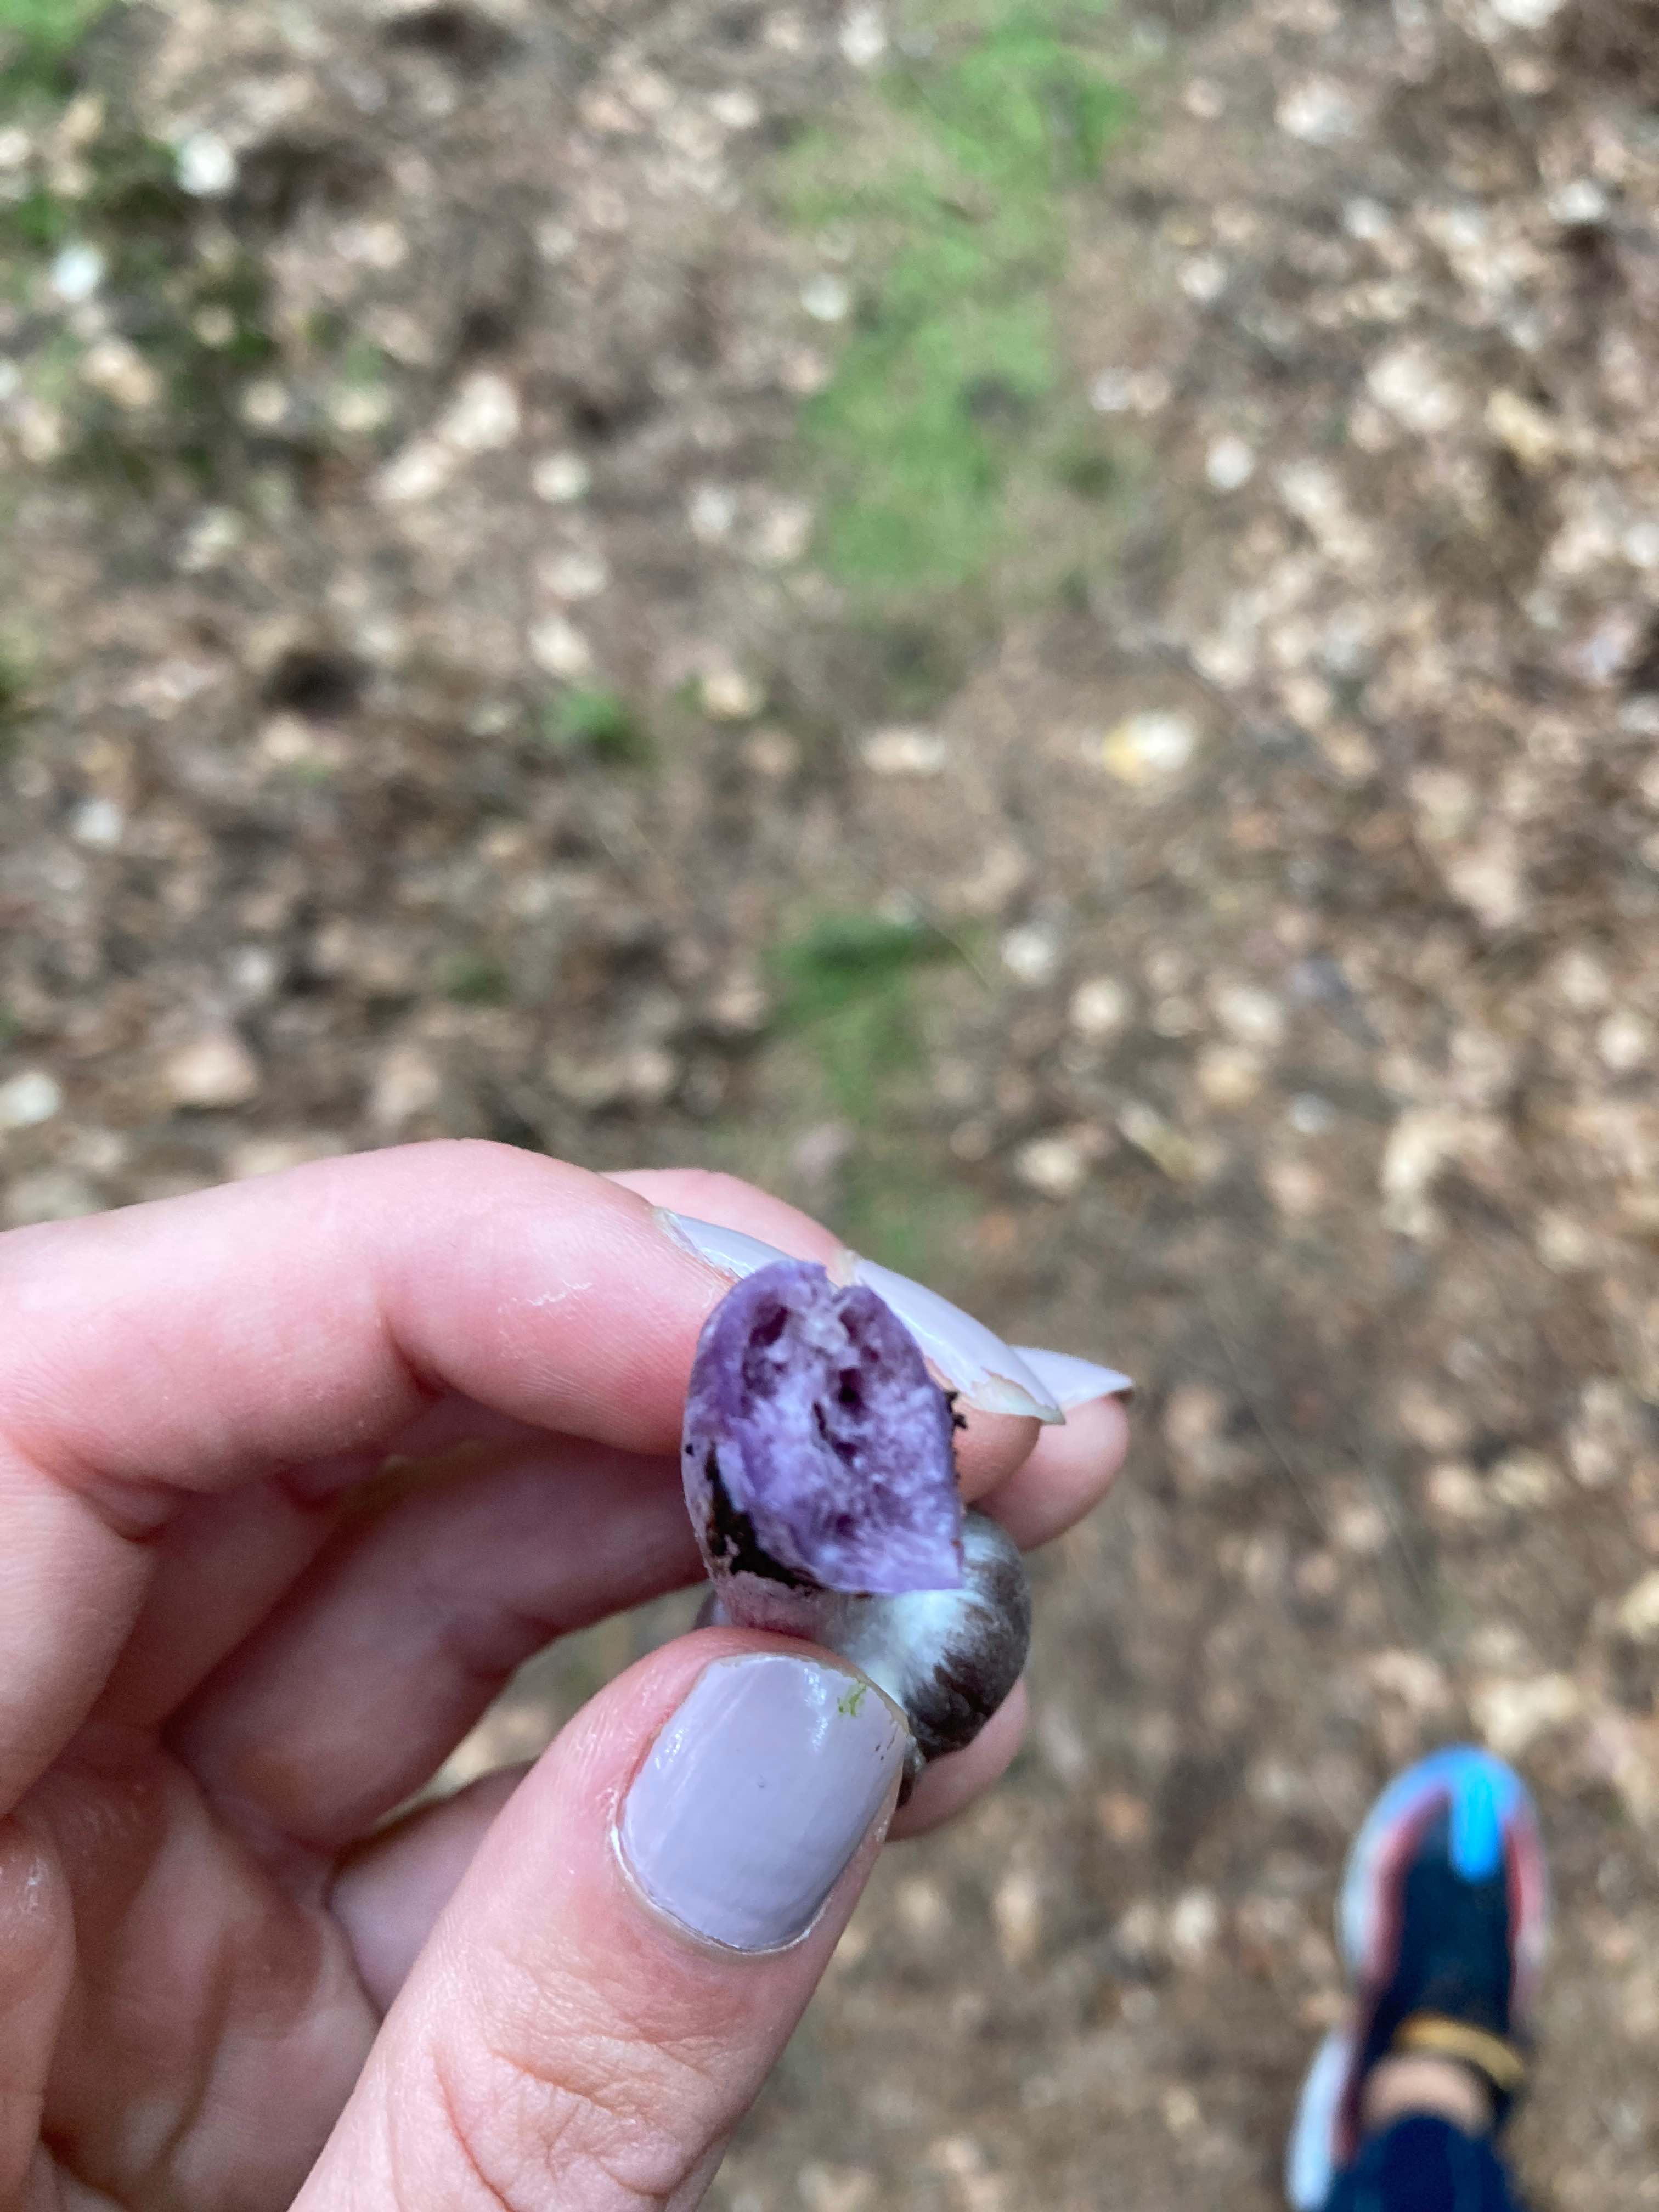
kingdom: Fungi
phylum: Basidiomycota
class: Agaricomycetes
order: Agaricales
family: Cortinariaceae
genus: Cortinarius
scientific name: Cortinarius
